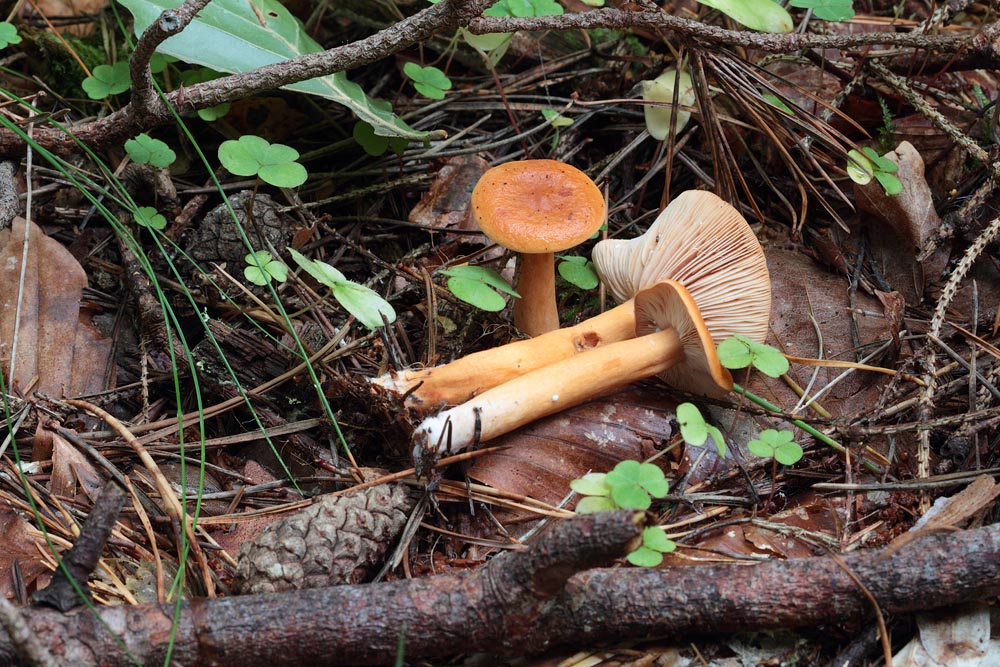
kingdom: Fungi
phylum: Basidiomycota
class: Agaricomycetes
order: Russulales
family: Russulaceae
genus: Lactarius
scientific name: Lactarius aurantiacus
